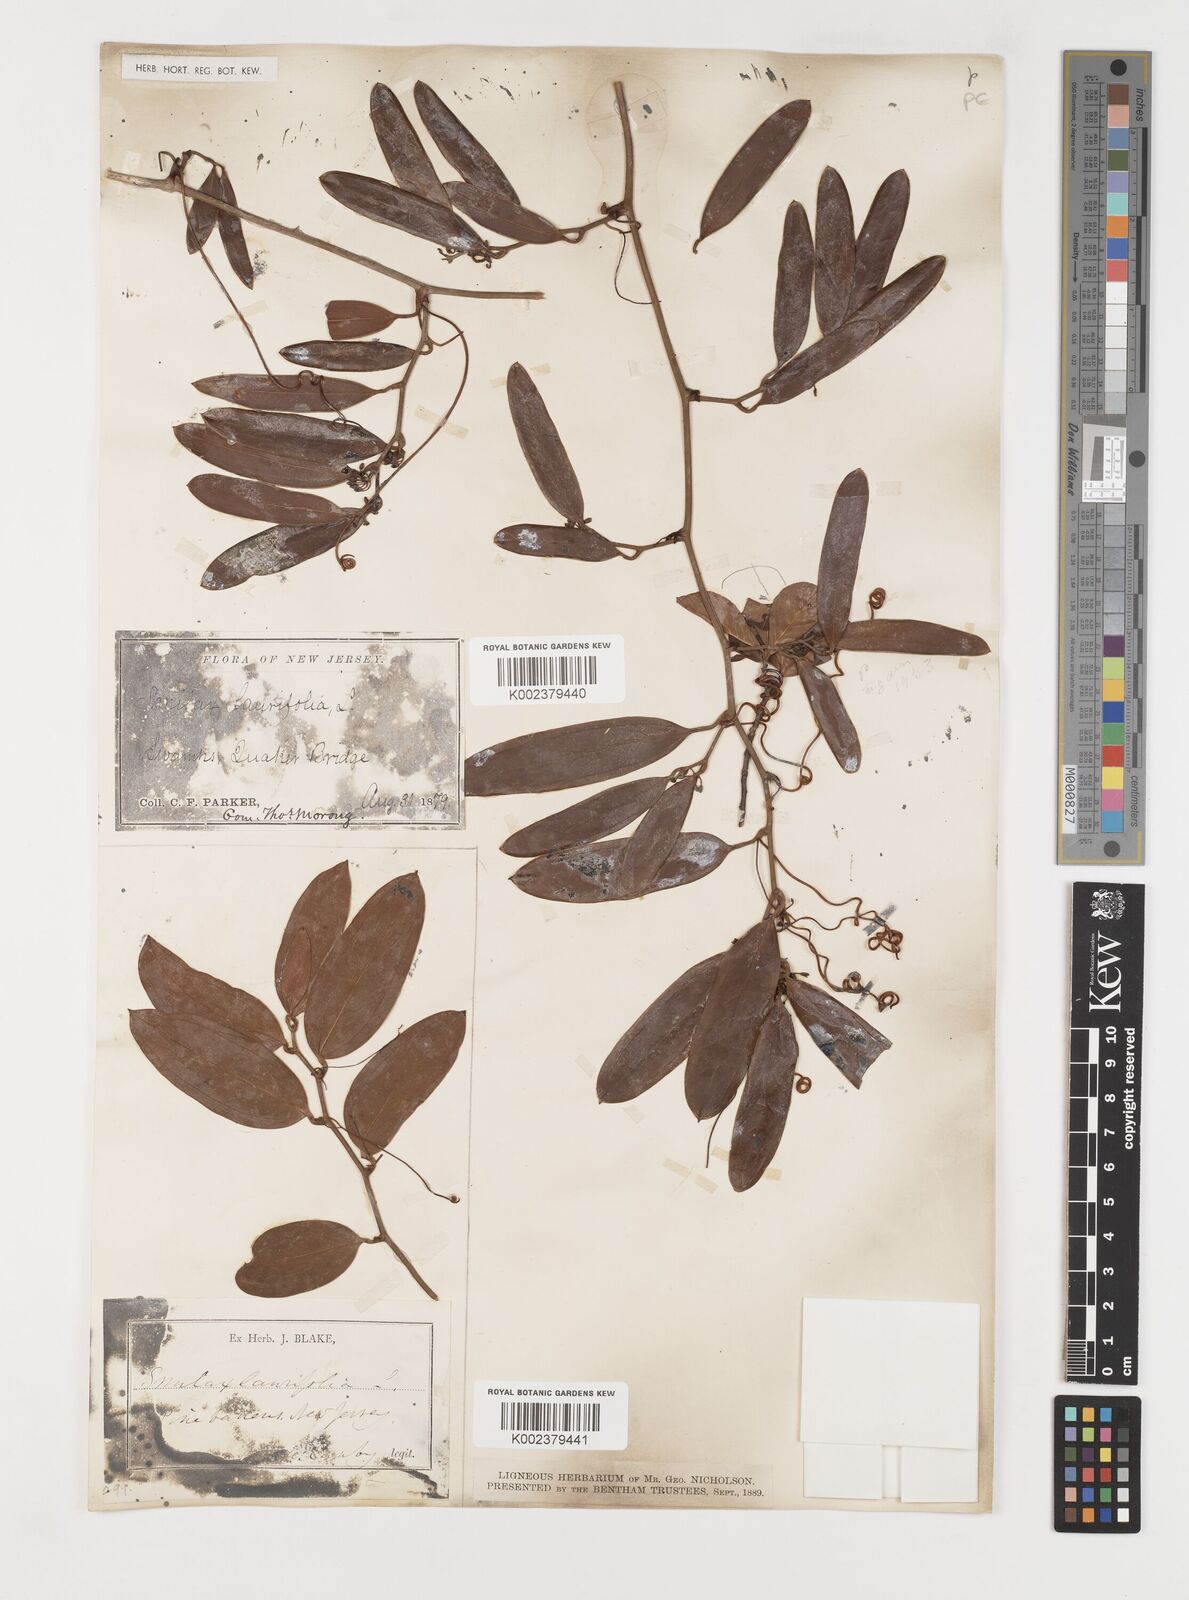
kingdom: Plantae
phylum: Tracheophyta
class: Liliopsida
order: Liliales
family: Smilacaceae
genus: Smilax
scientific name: Smilax laurifolia
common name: Bamboovine
